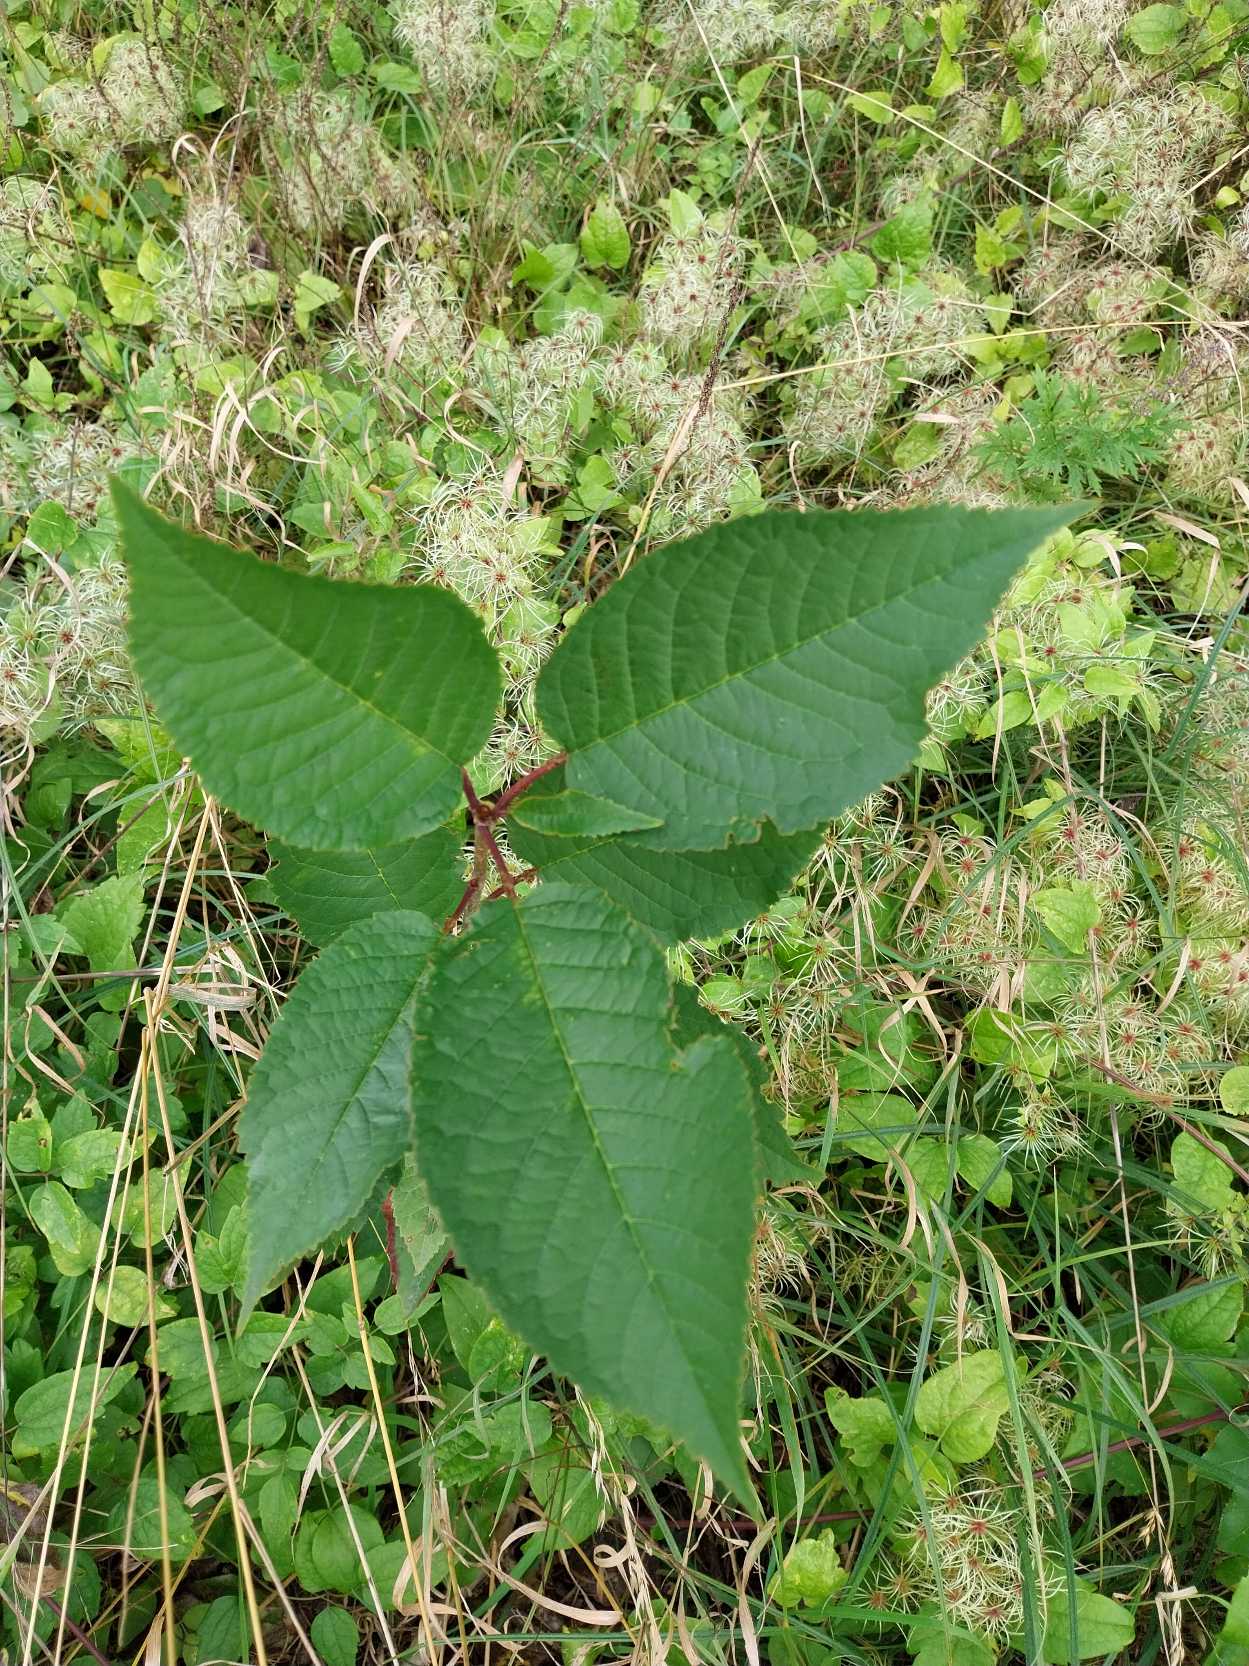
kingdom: Plantae
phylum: Tracheophyta
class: Magnoliopsida
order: Rosales
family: Rosaceae
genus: Prunus
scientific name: Prunus avium
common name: Fugle-kirsebær
